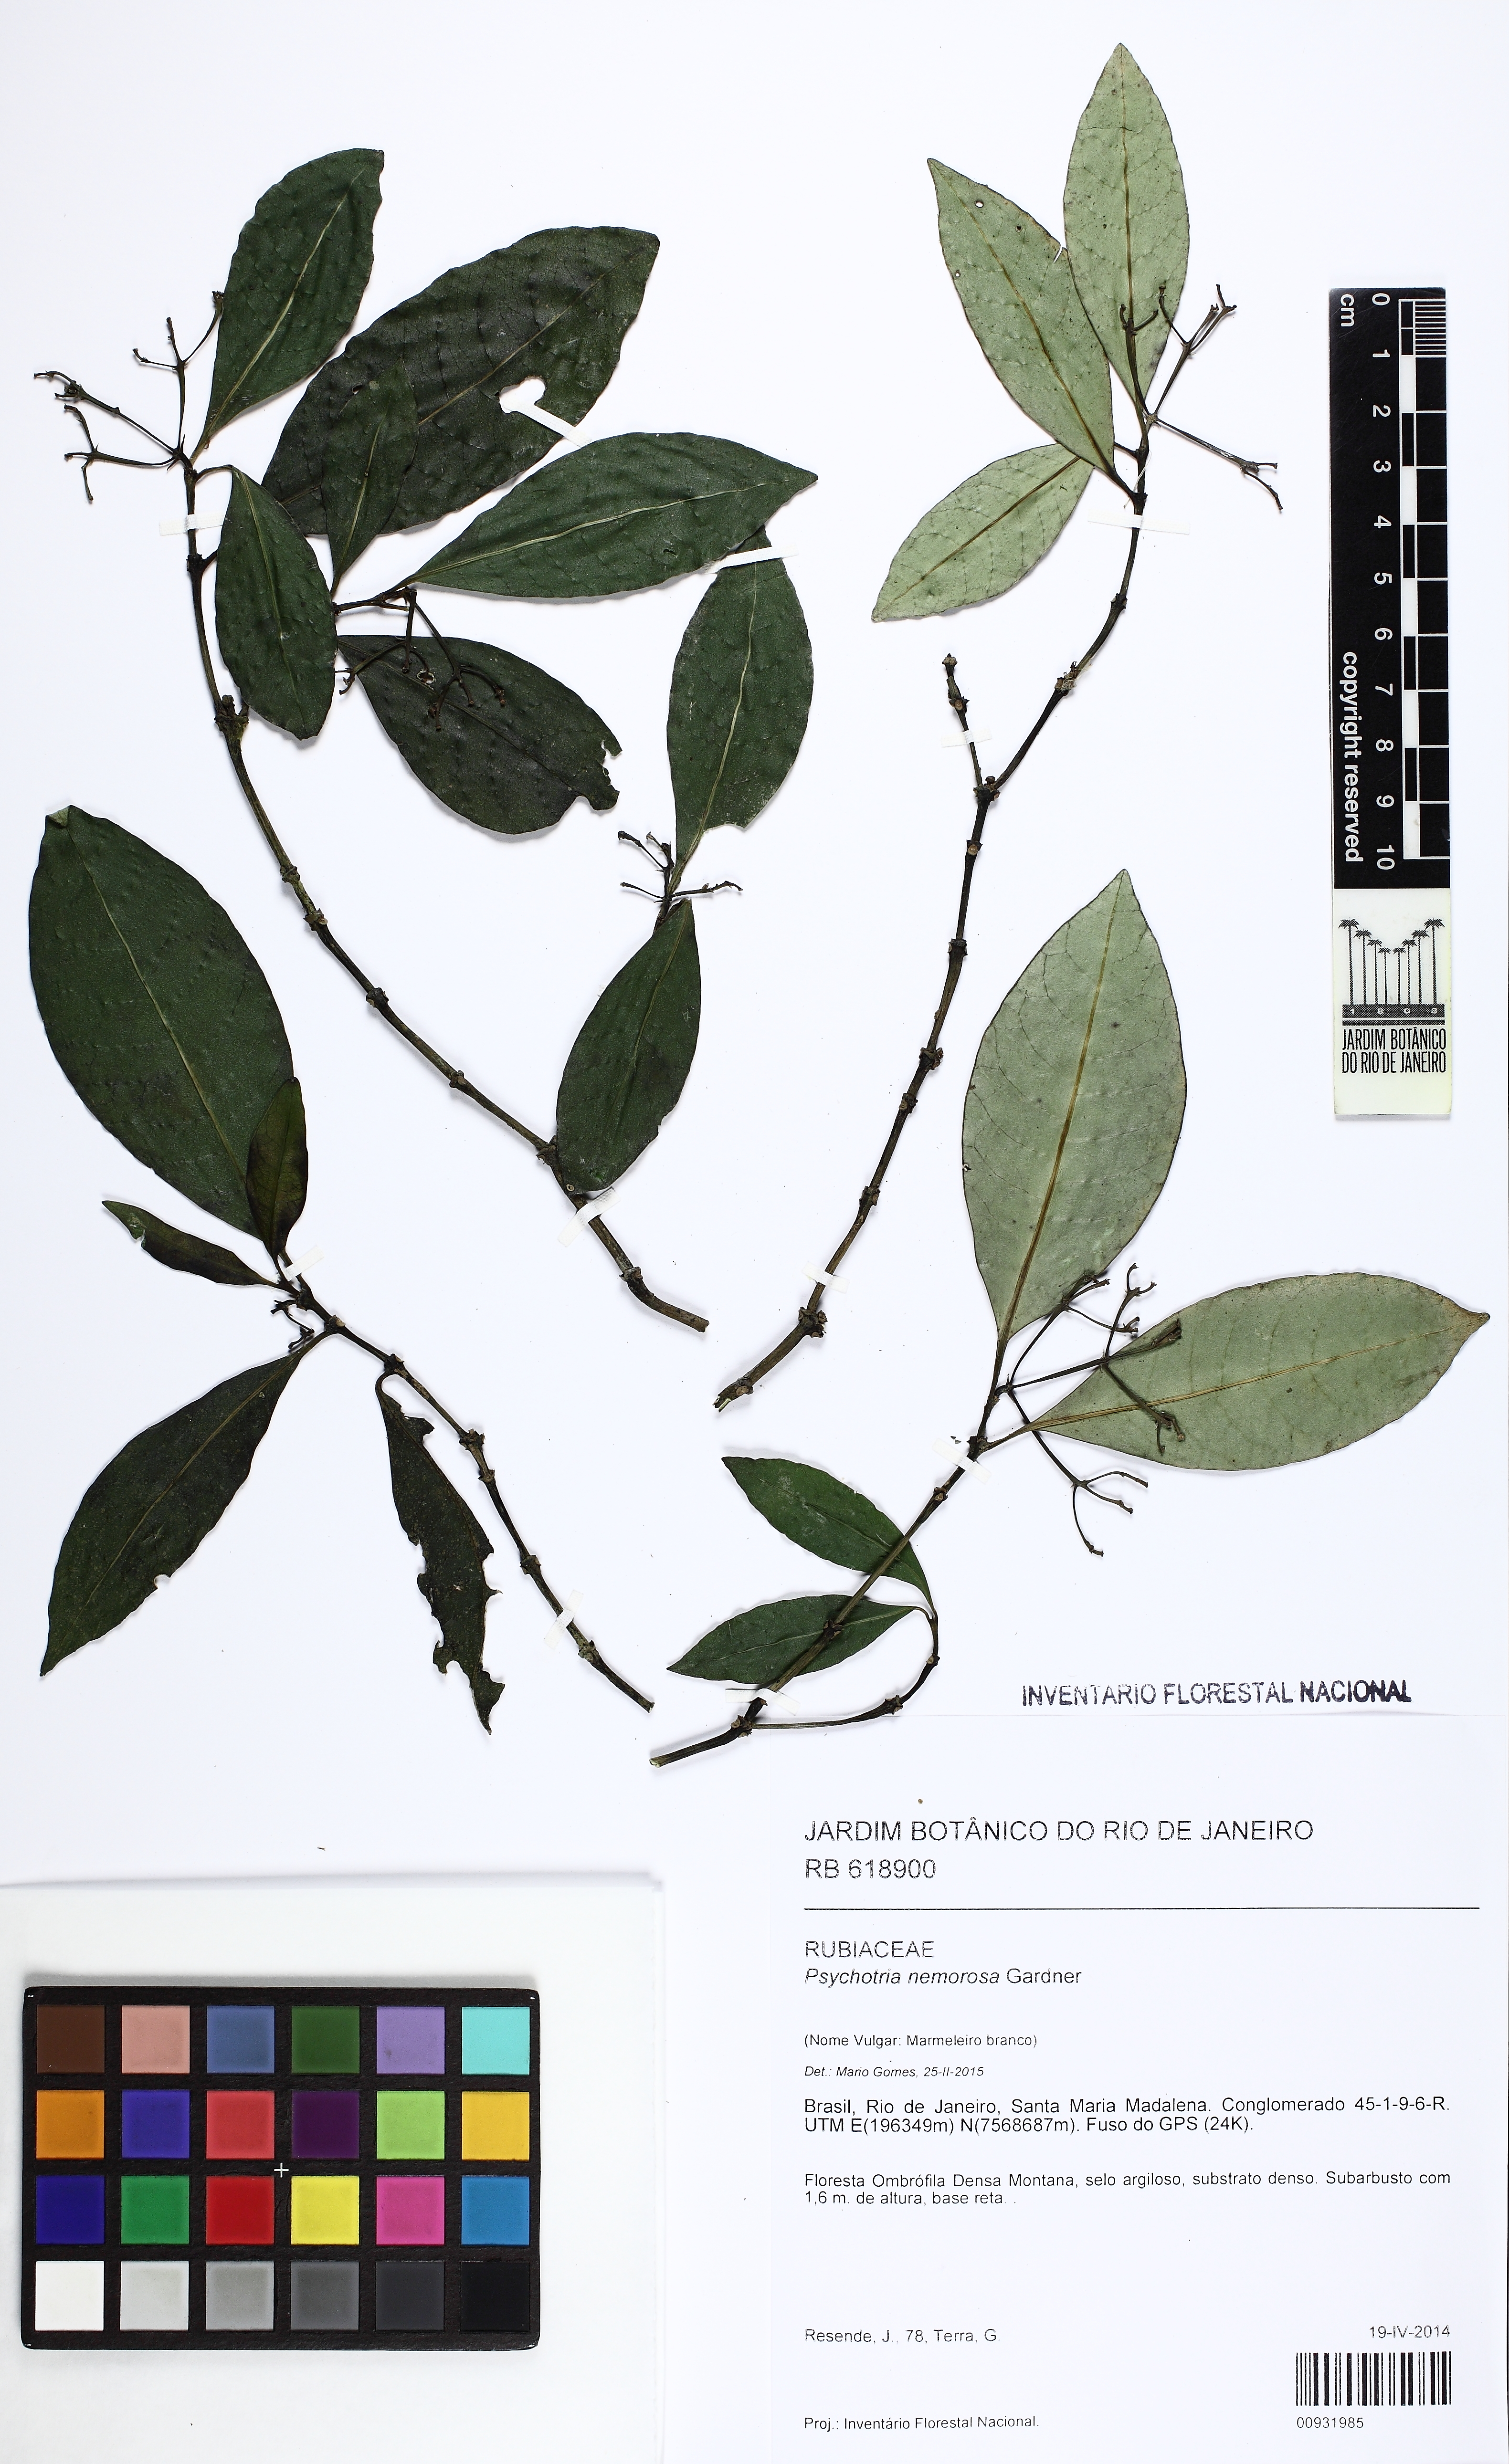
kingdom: Plantae
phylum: Tracheophyta
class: Magnoliopsida
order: Gentianales
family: Rubiaceae
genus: Psychotria
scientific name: Psychotria nemorosa
